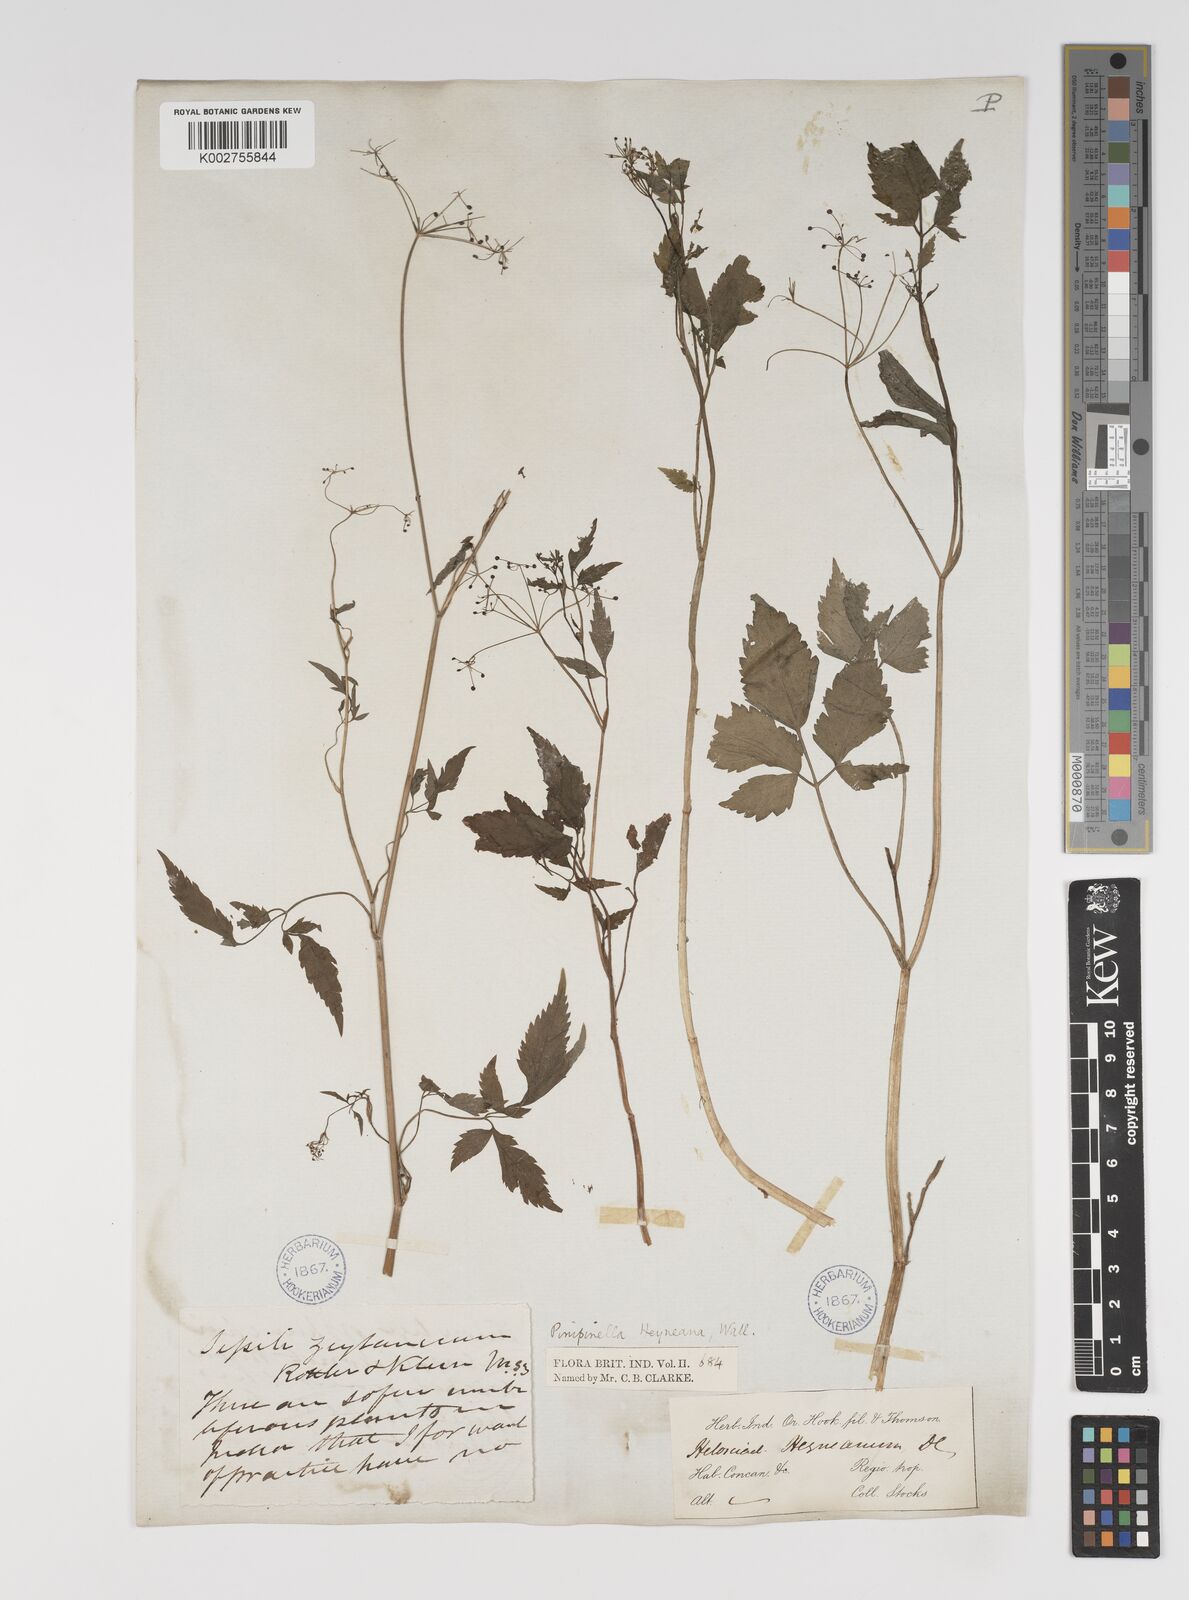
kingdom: Plantae
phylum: Tracheophyta
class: Magnoliopsida
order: Apiales
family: Apiaceae
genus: Pimpinella
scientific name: Pimpinella heyneana
